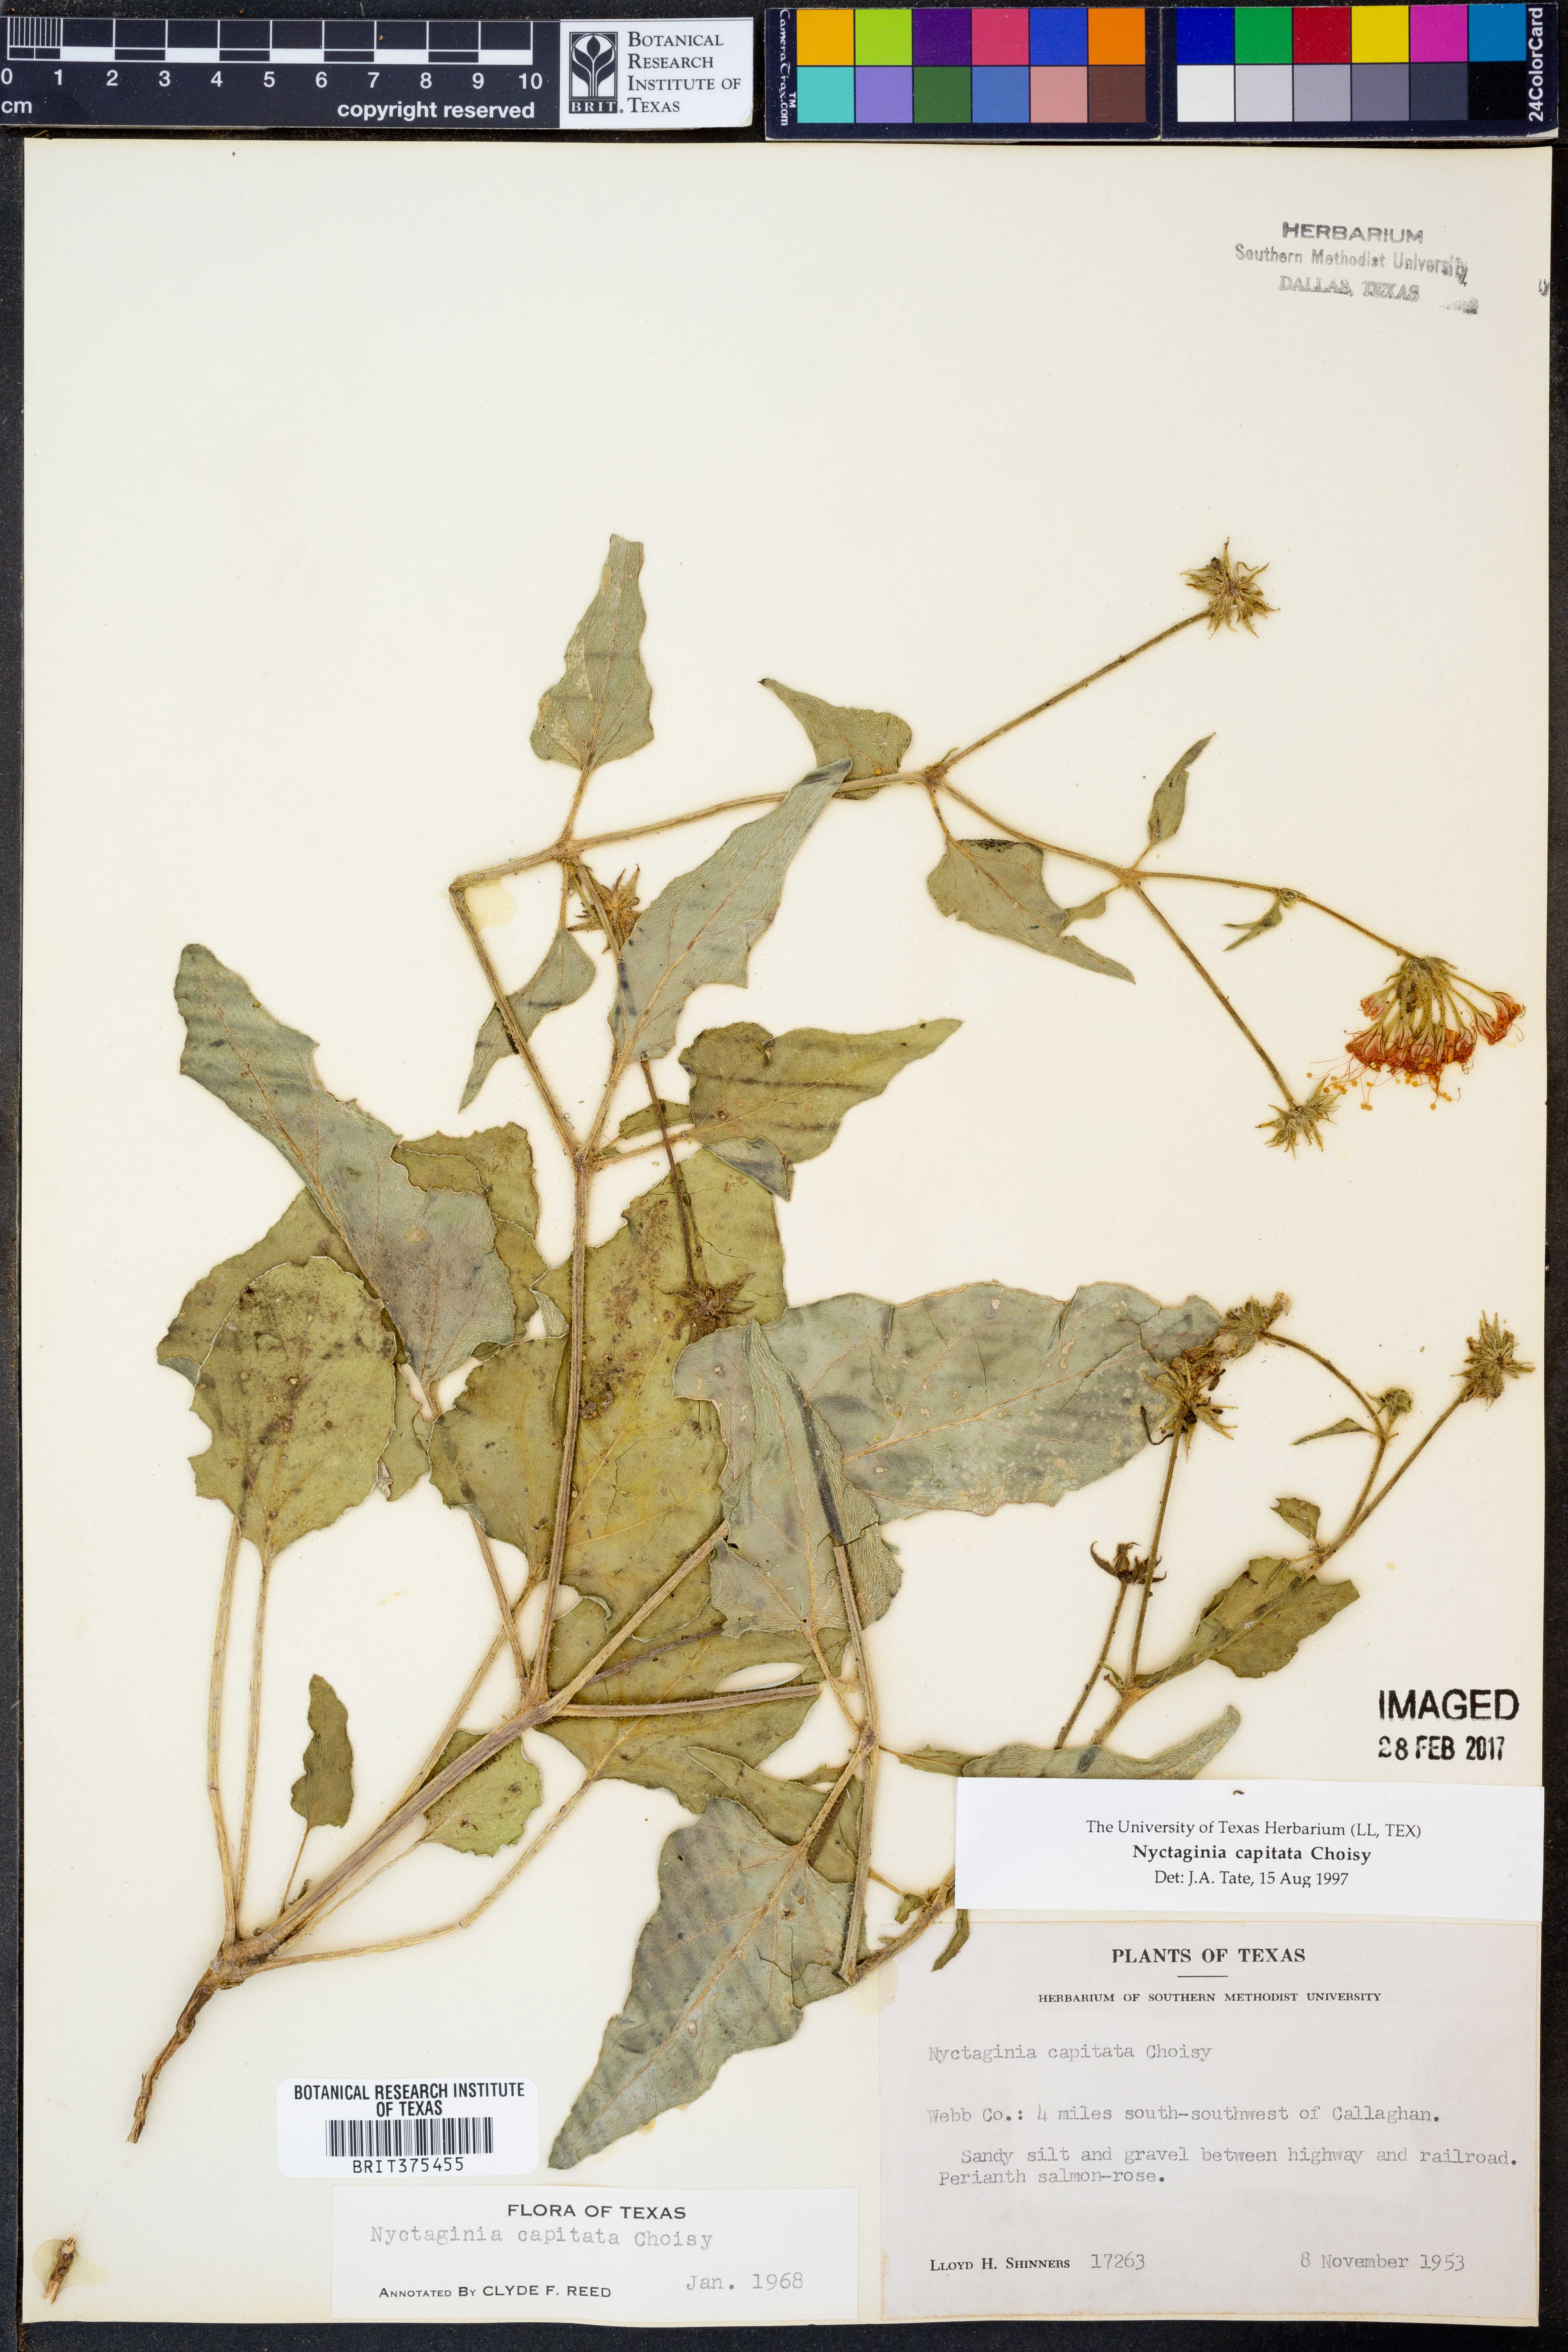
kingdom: Plantae
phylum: Tracheophyta
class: Magnoliopsida
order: Caryophyllales
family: Nyctaginaceae
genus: Nyctaginia
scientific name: Nyctaginia capitata
